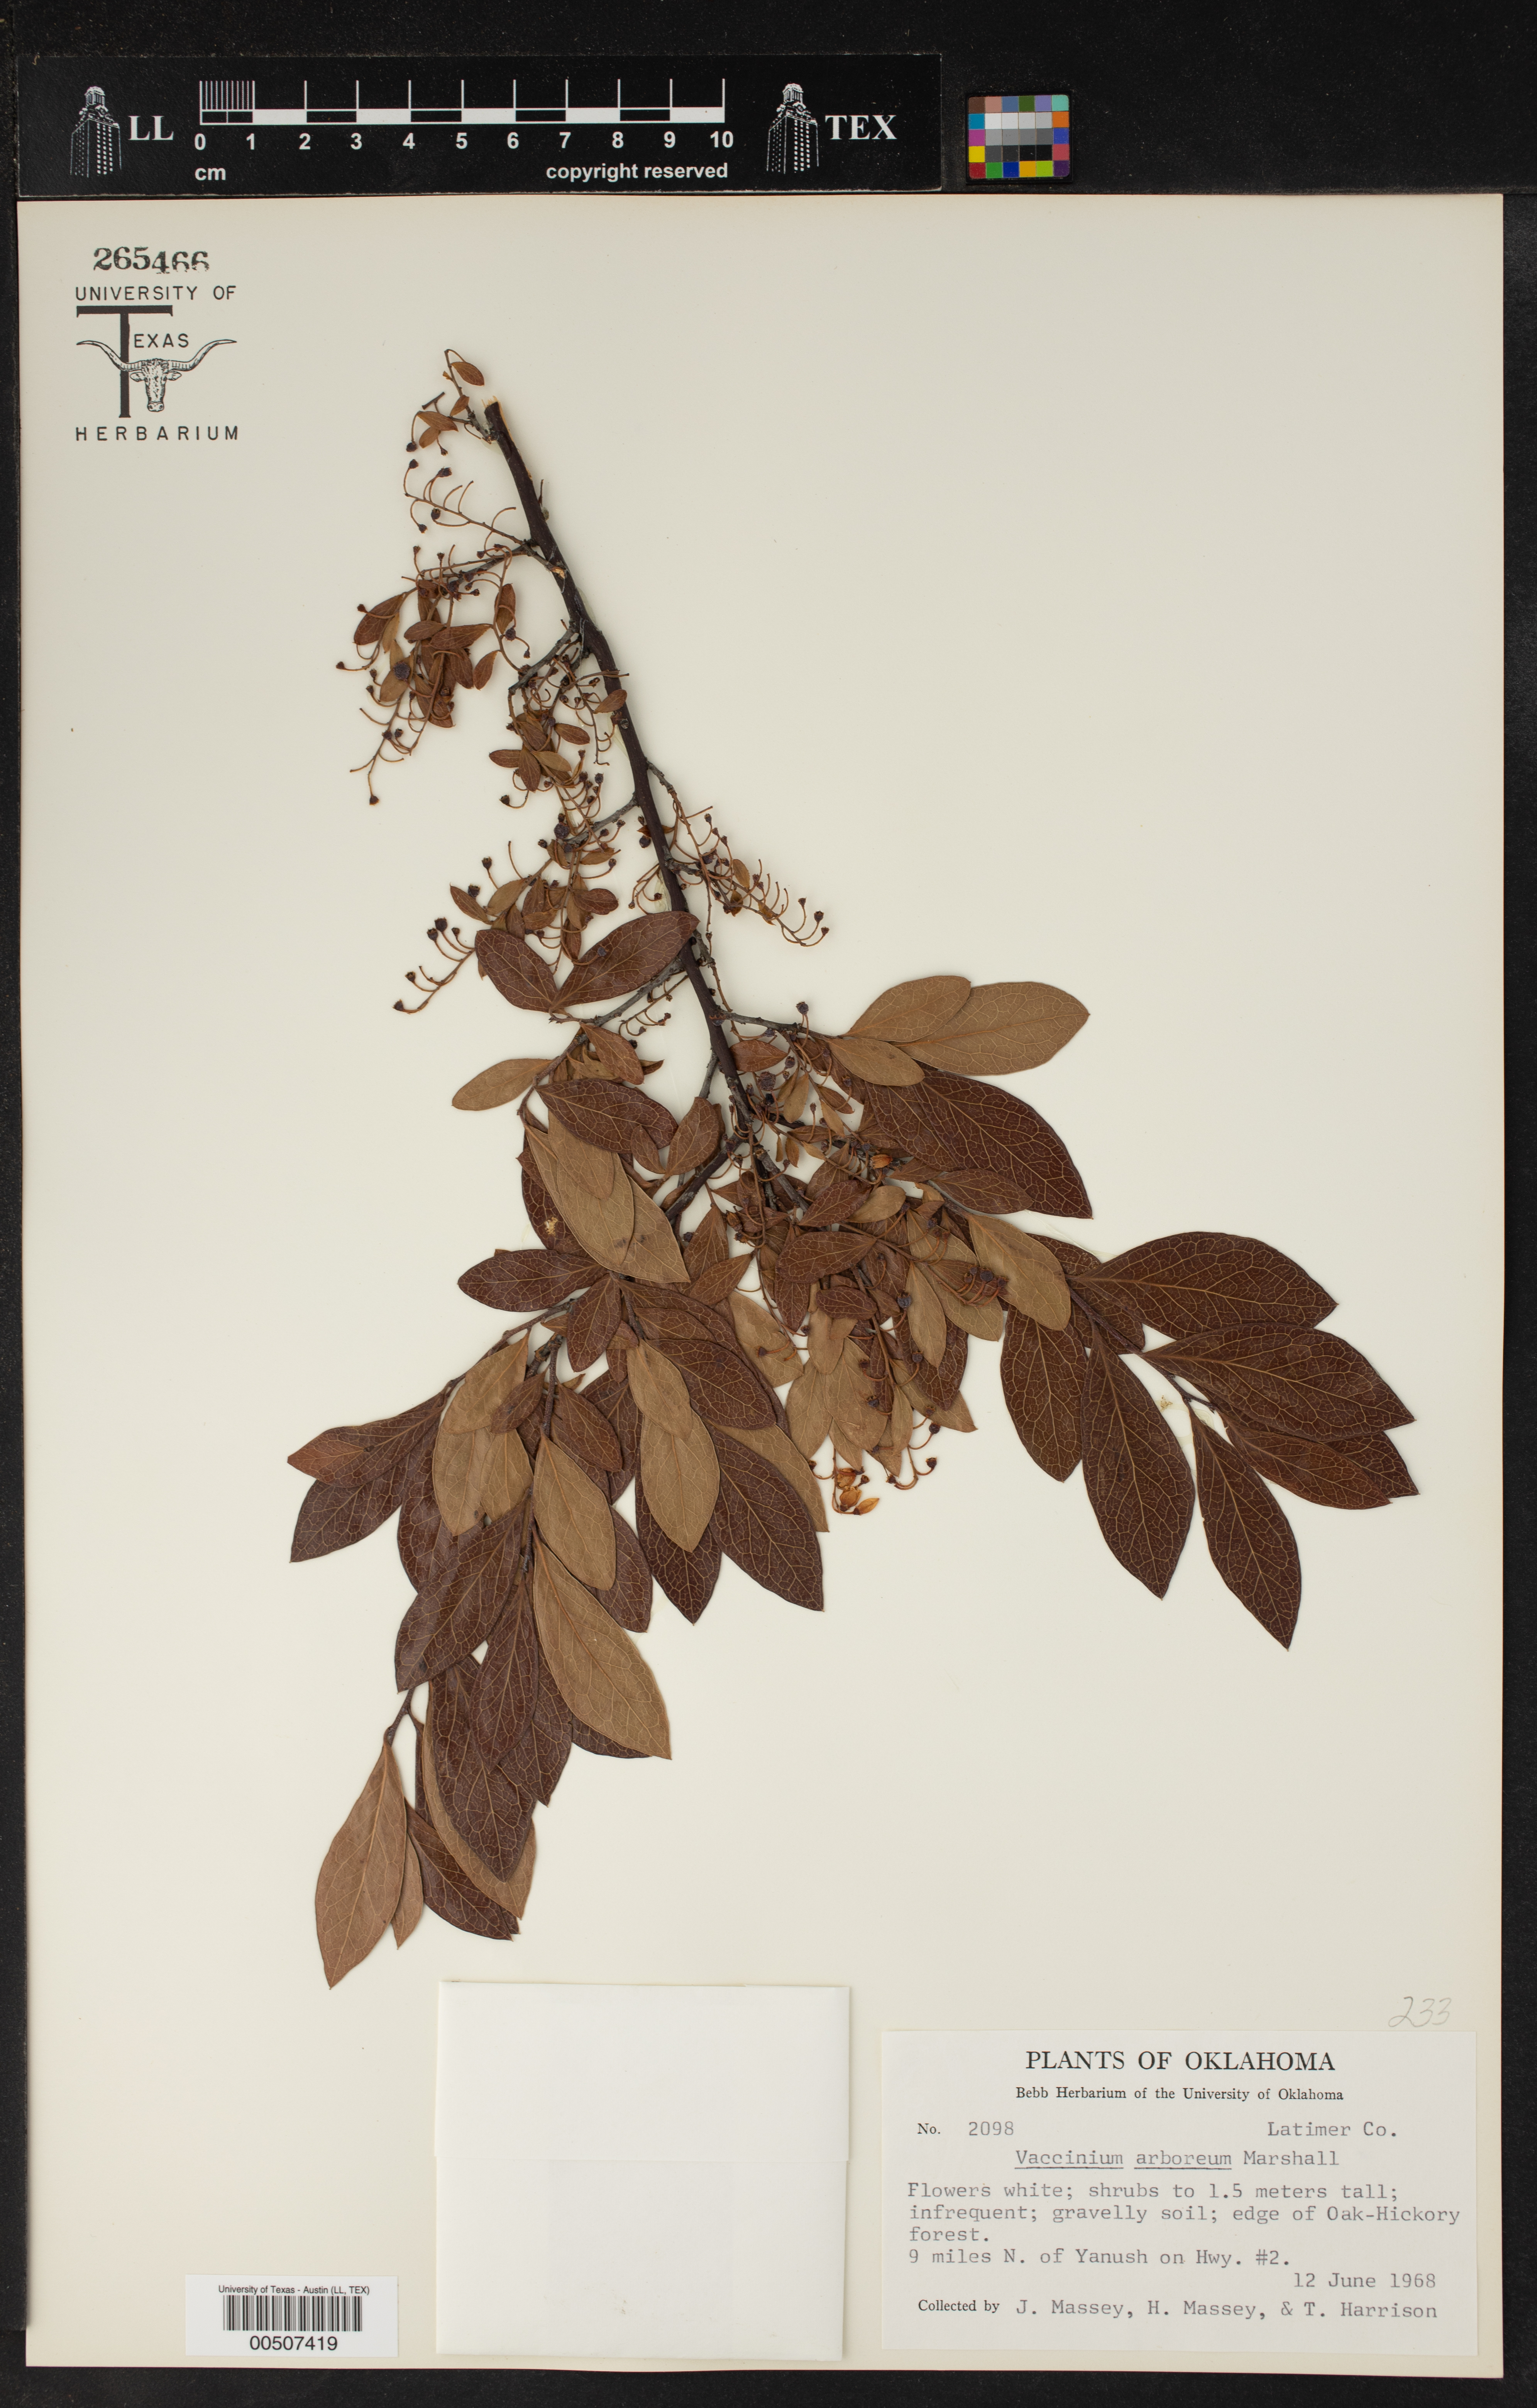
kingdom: Plantae
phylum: Tracheophyta
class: Magnoliopsida
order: Ericales
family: Ericaceae
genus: Vaccinium
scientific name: Vaccinium arboreum
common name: Farkleberry
